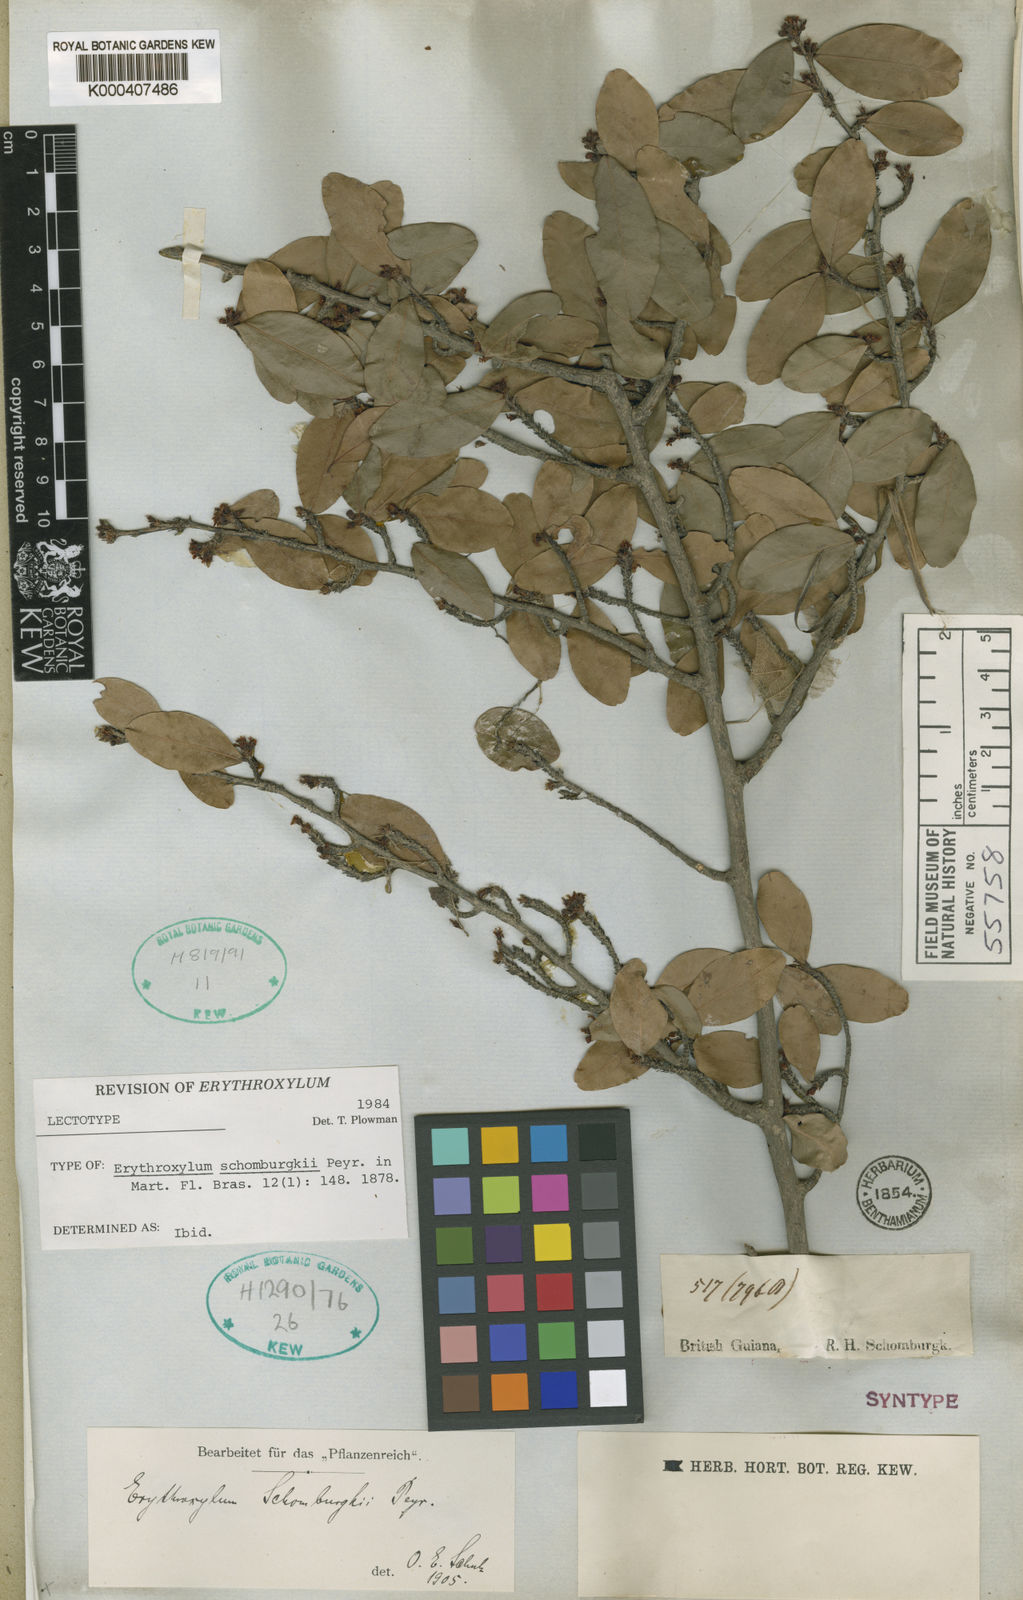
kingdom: Plantae
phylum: Tracheophyta
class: Magnoliopsida
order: Malpighiales
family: Erythroxylaceae
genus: Erythroxylum
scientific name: Erythroxylum schomburgkii
